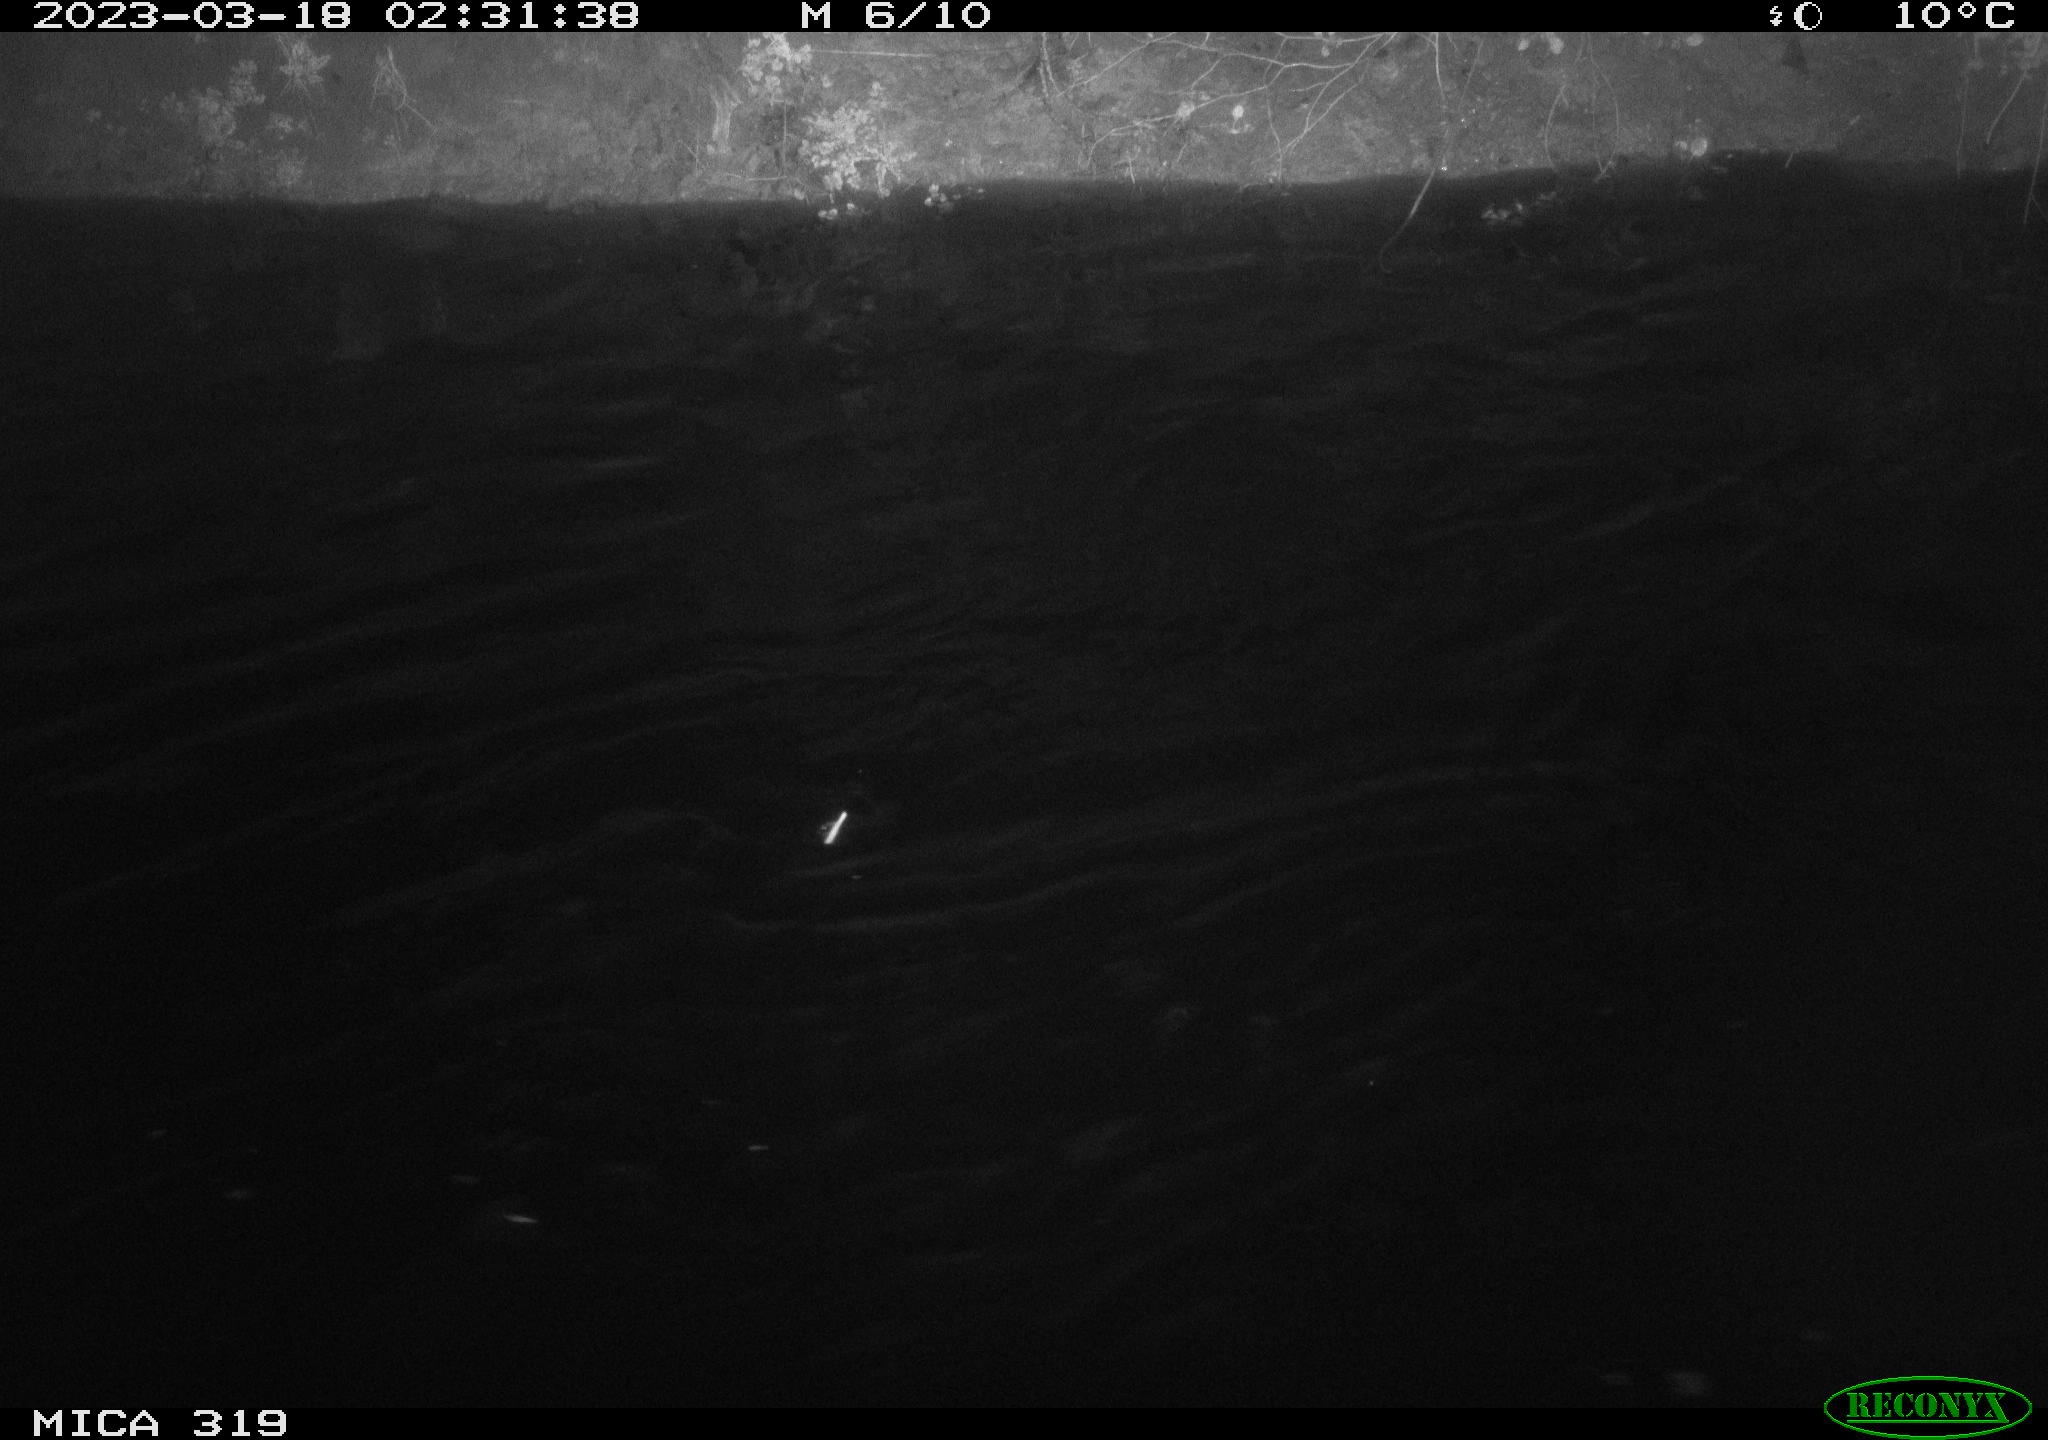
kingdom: Animalia
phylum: Chordata
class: Aves
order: Anseriformes
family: Anatidae
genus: Anas
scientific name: Anas
